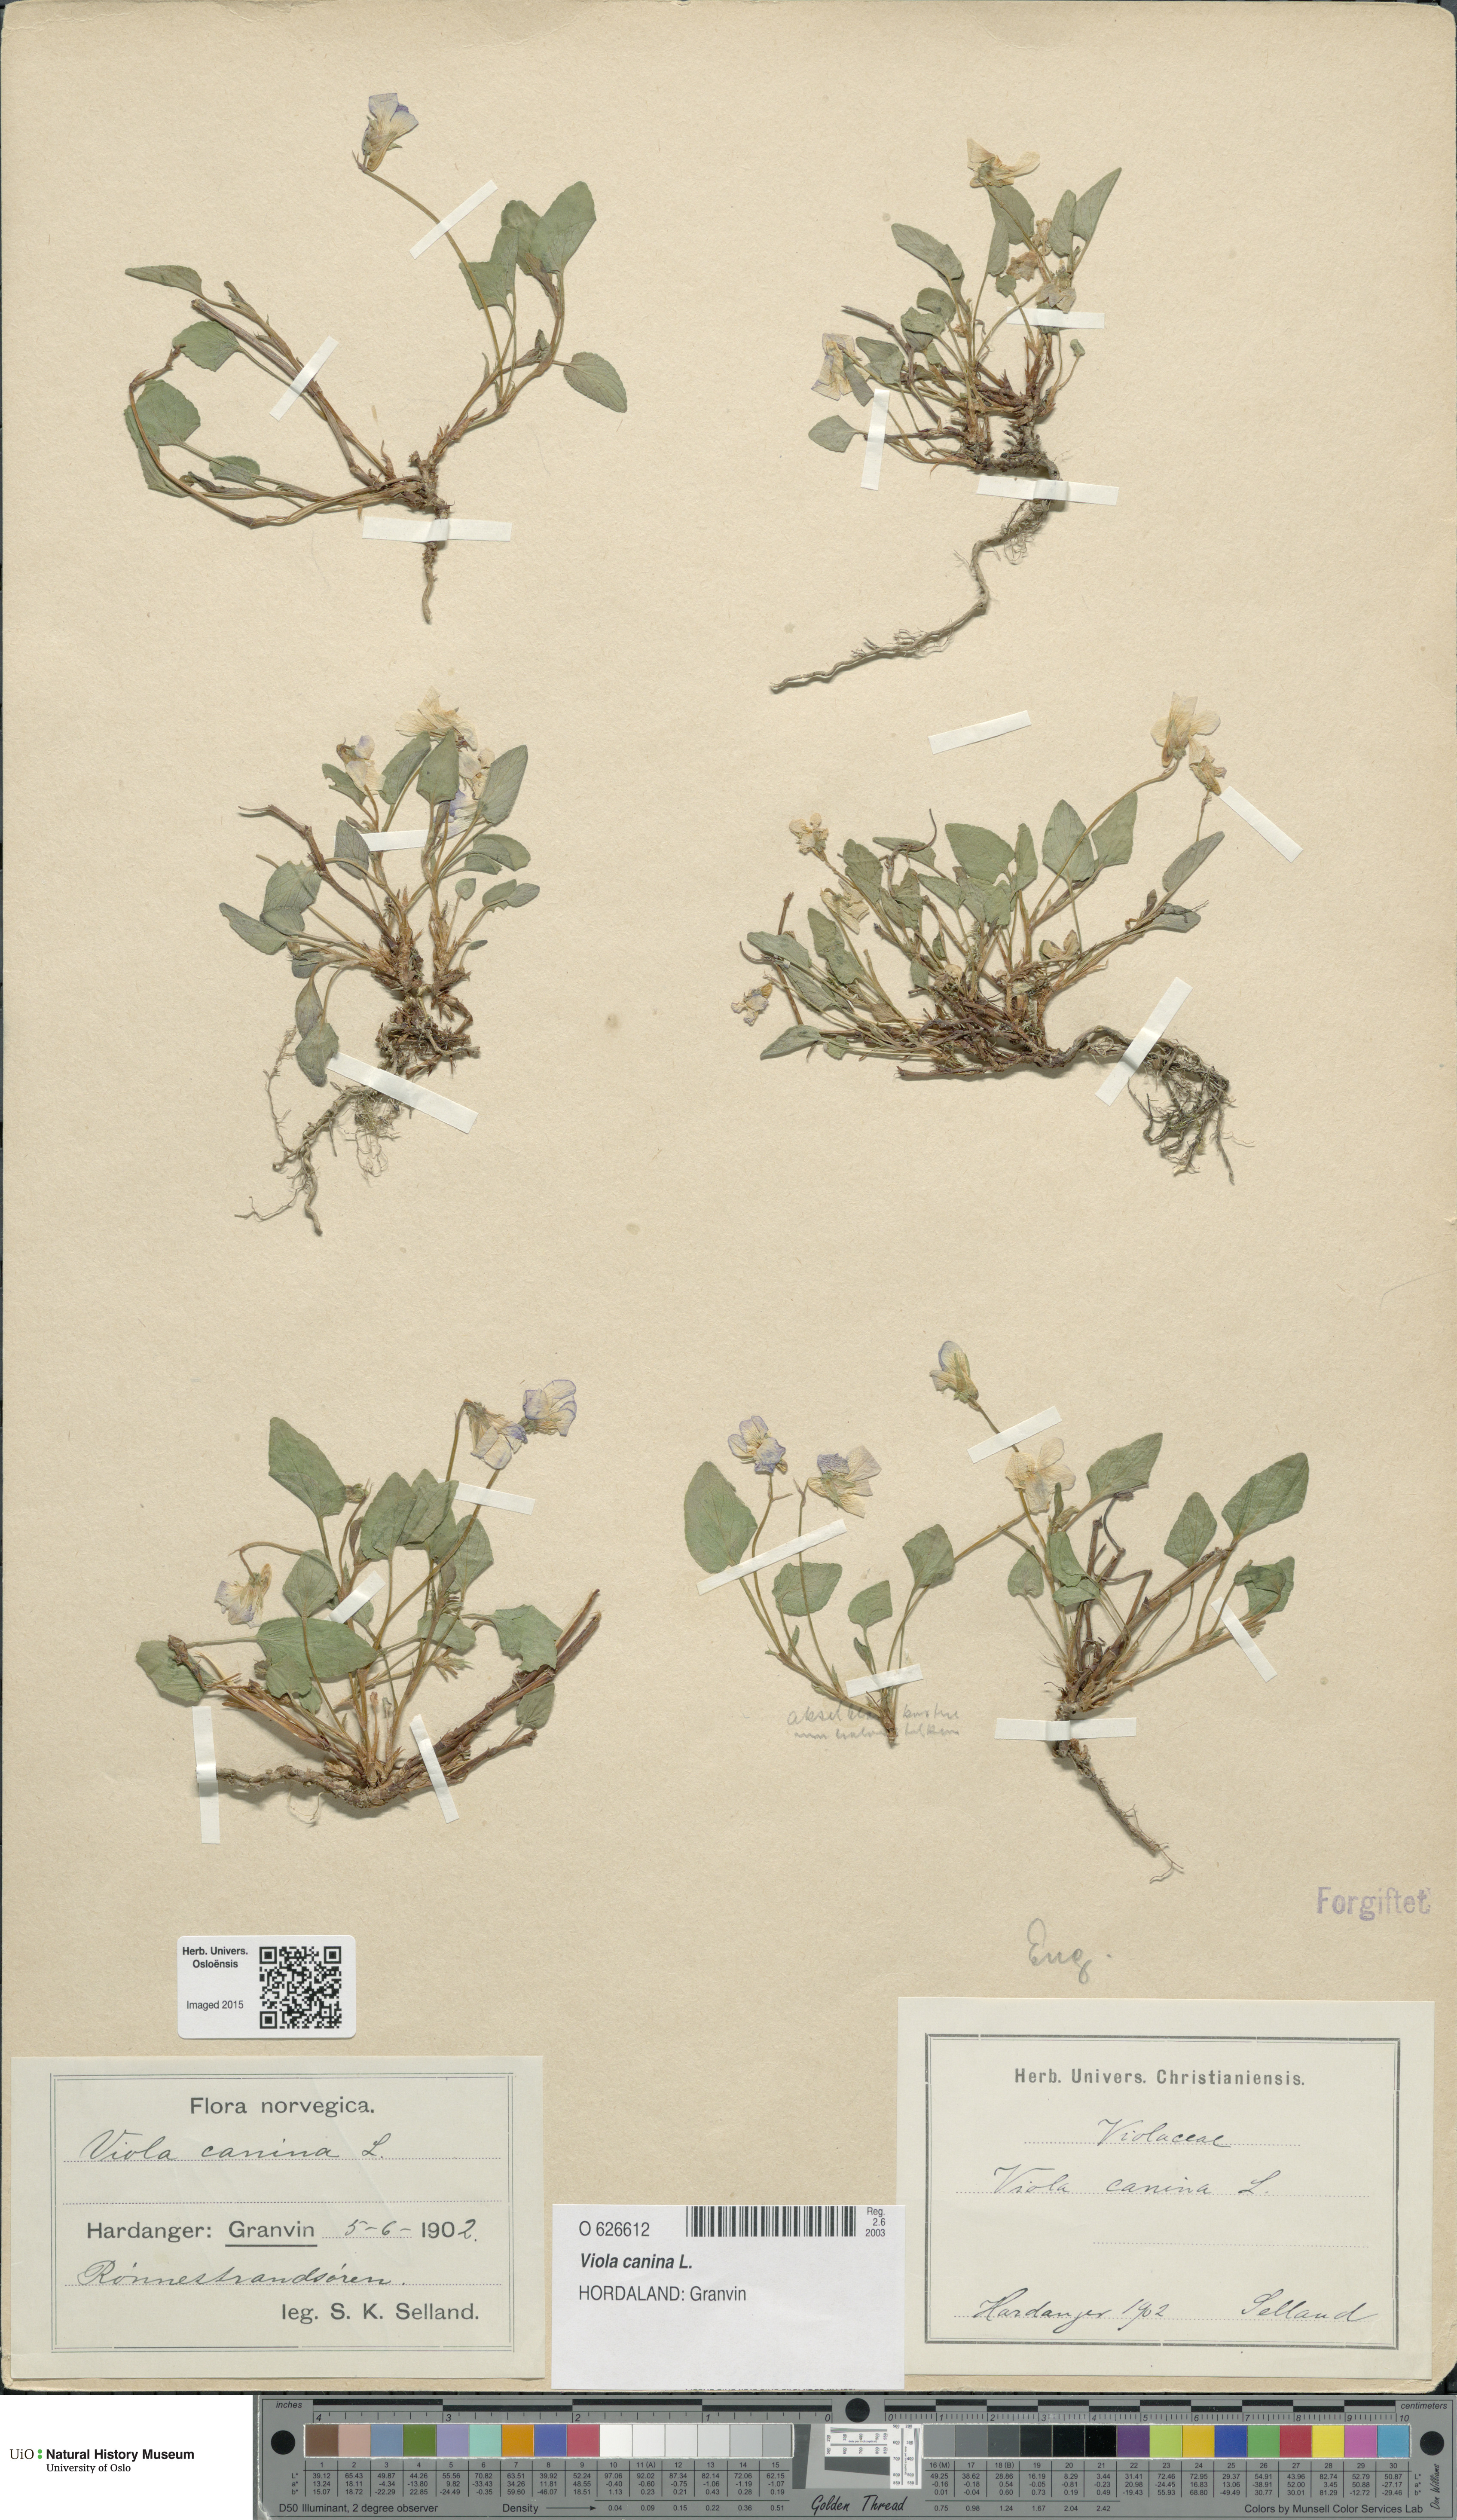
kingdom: Plantae
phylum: Tracheophyta
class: Magnoliopsida
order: Malpighiales
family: Violaceae
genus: Viola
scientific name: Viola canina
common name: Heath dog-violet
